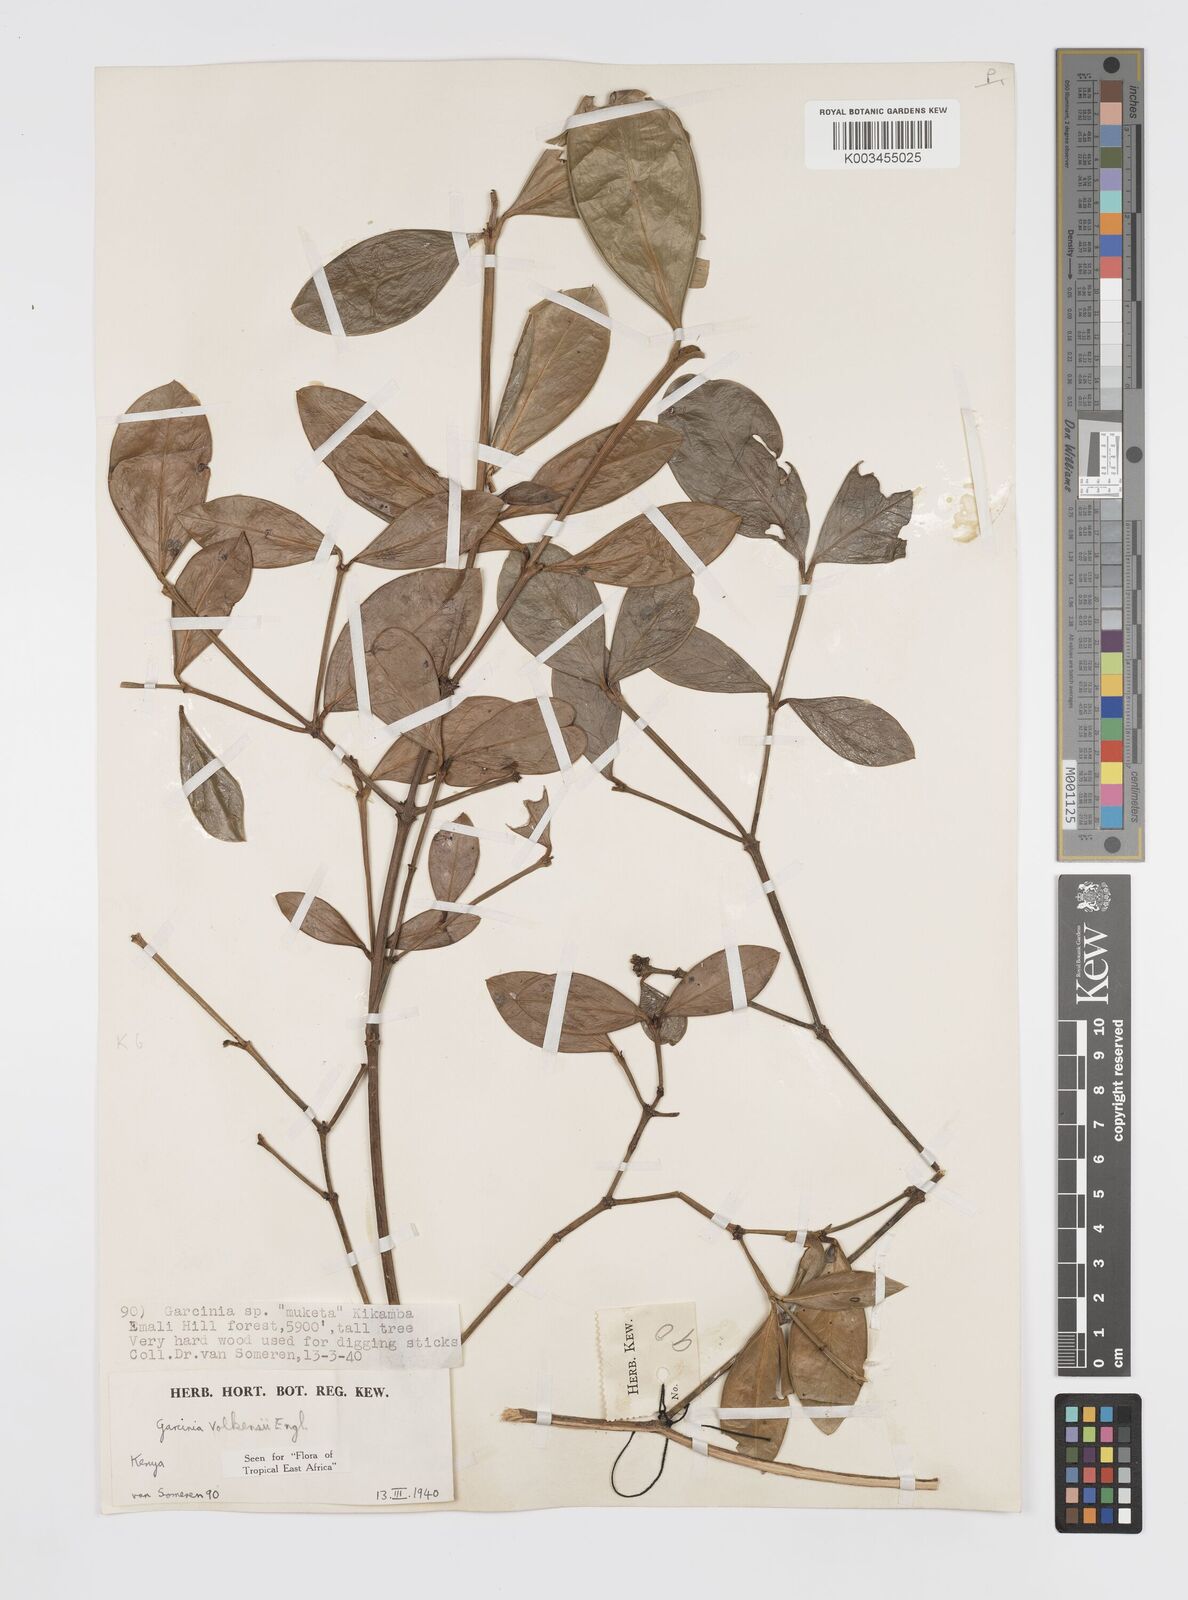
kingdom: Plantae
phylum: Tracheophyta
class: Magnoliopsida
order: Malpighiales
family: Clusiaceae
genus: Garcinia
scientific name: Garcinia volkensii
